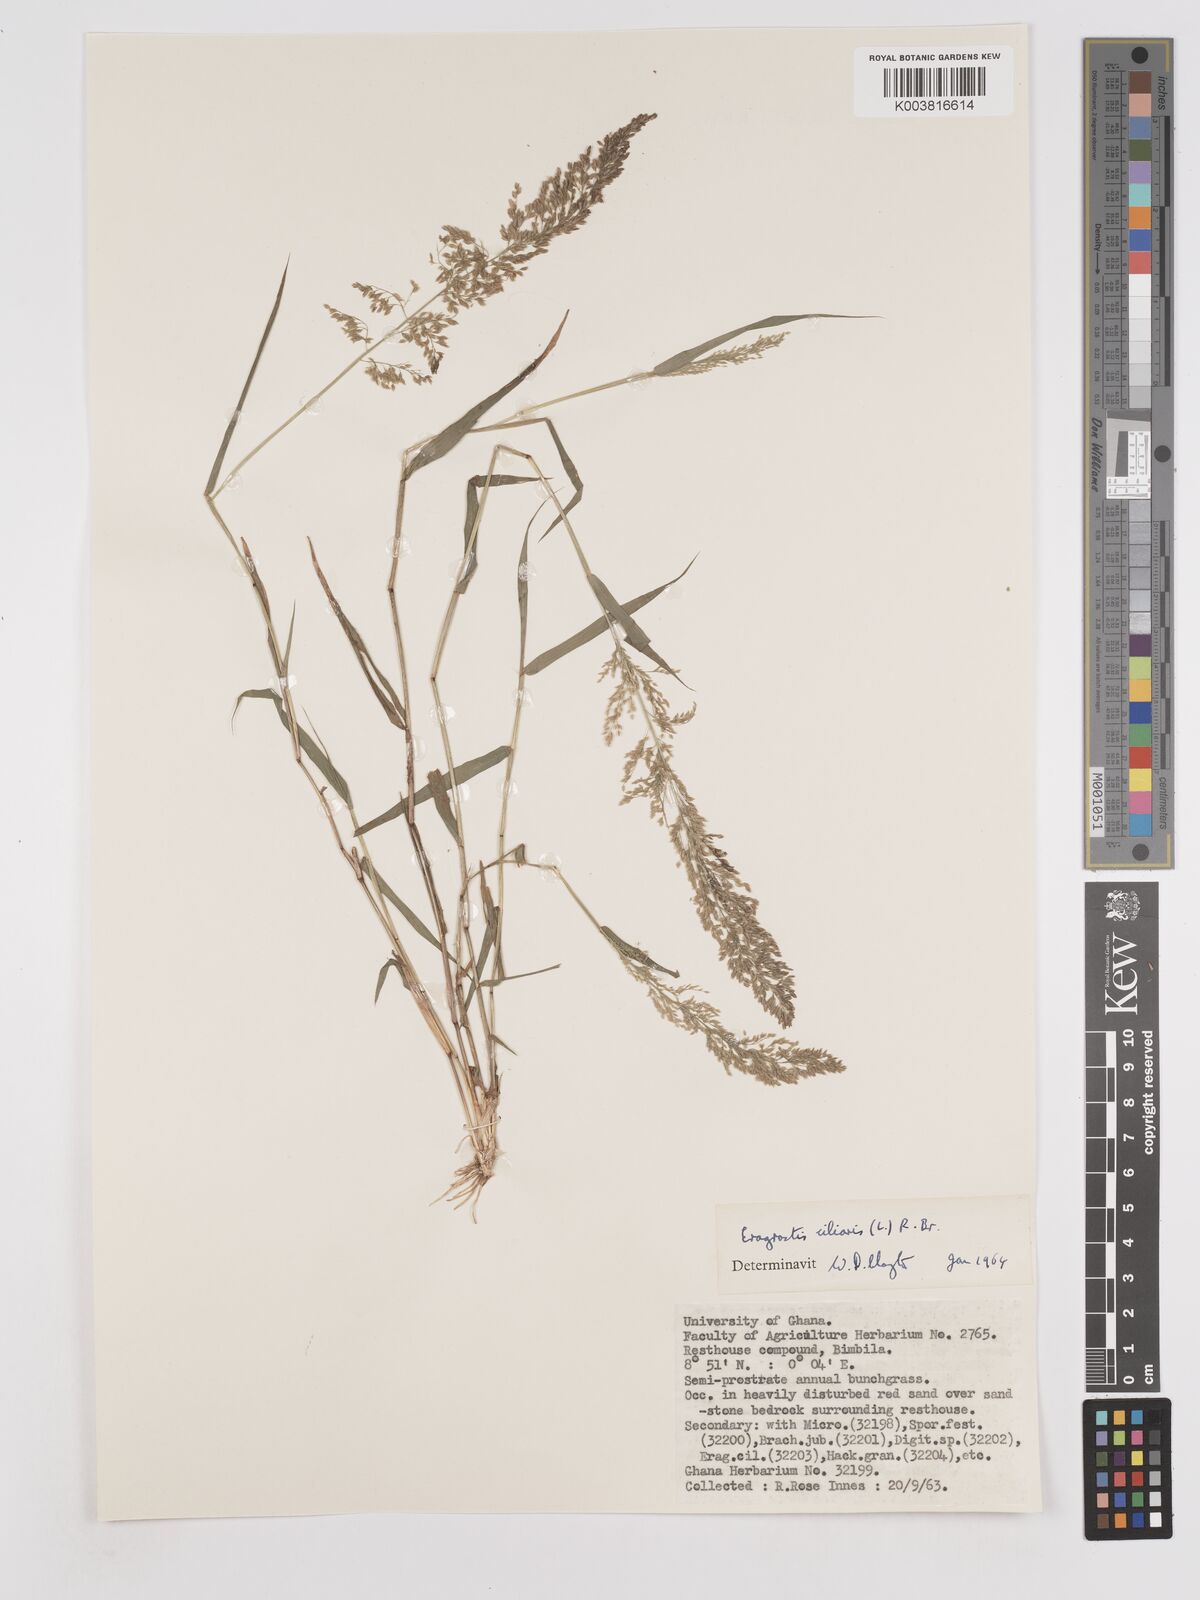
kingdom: Plantae
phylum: Tracheophyta
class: Liliopsida
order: Poales
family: Poaceae
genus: Eragrostis
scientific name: Eragrostis ciliaris
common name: Gophertail lovegrass
